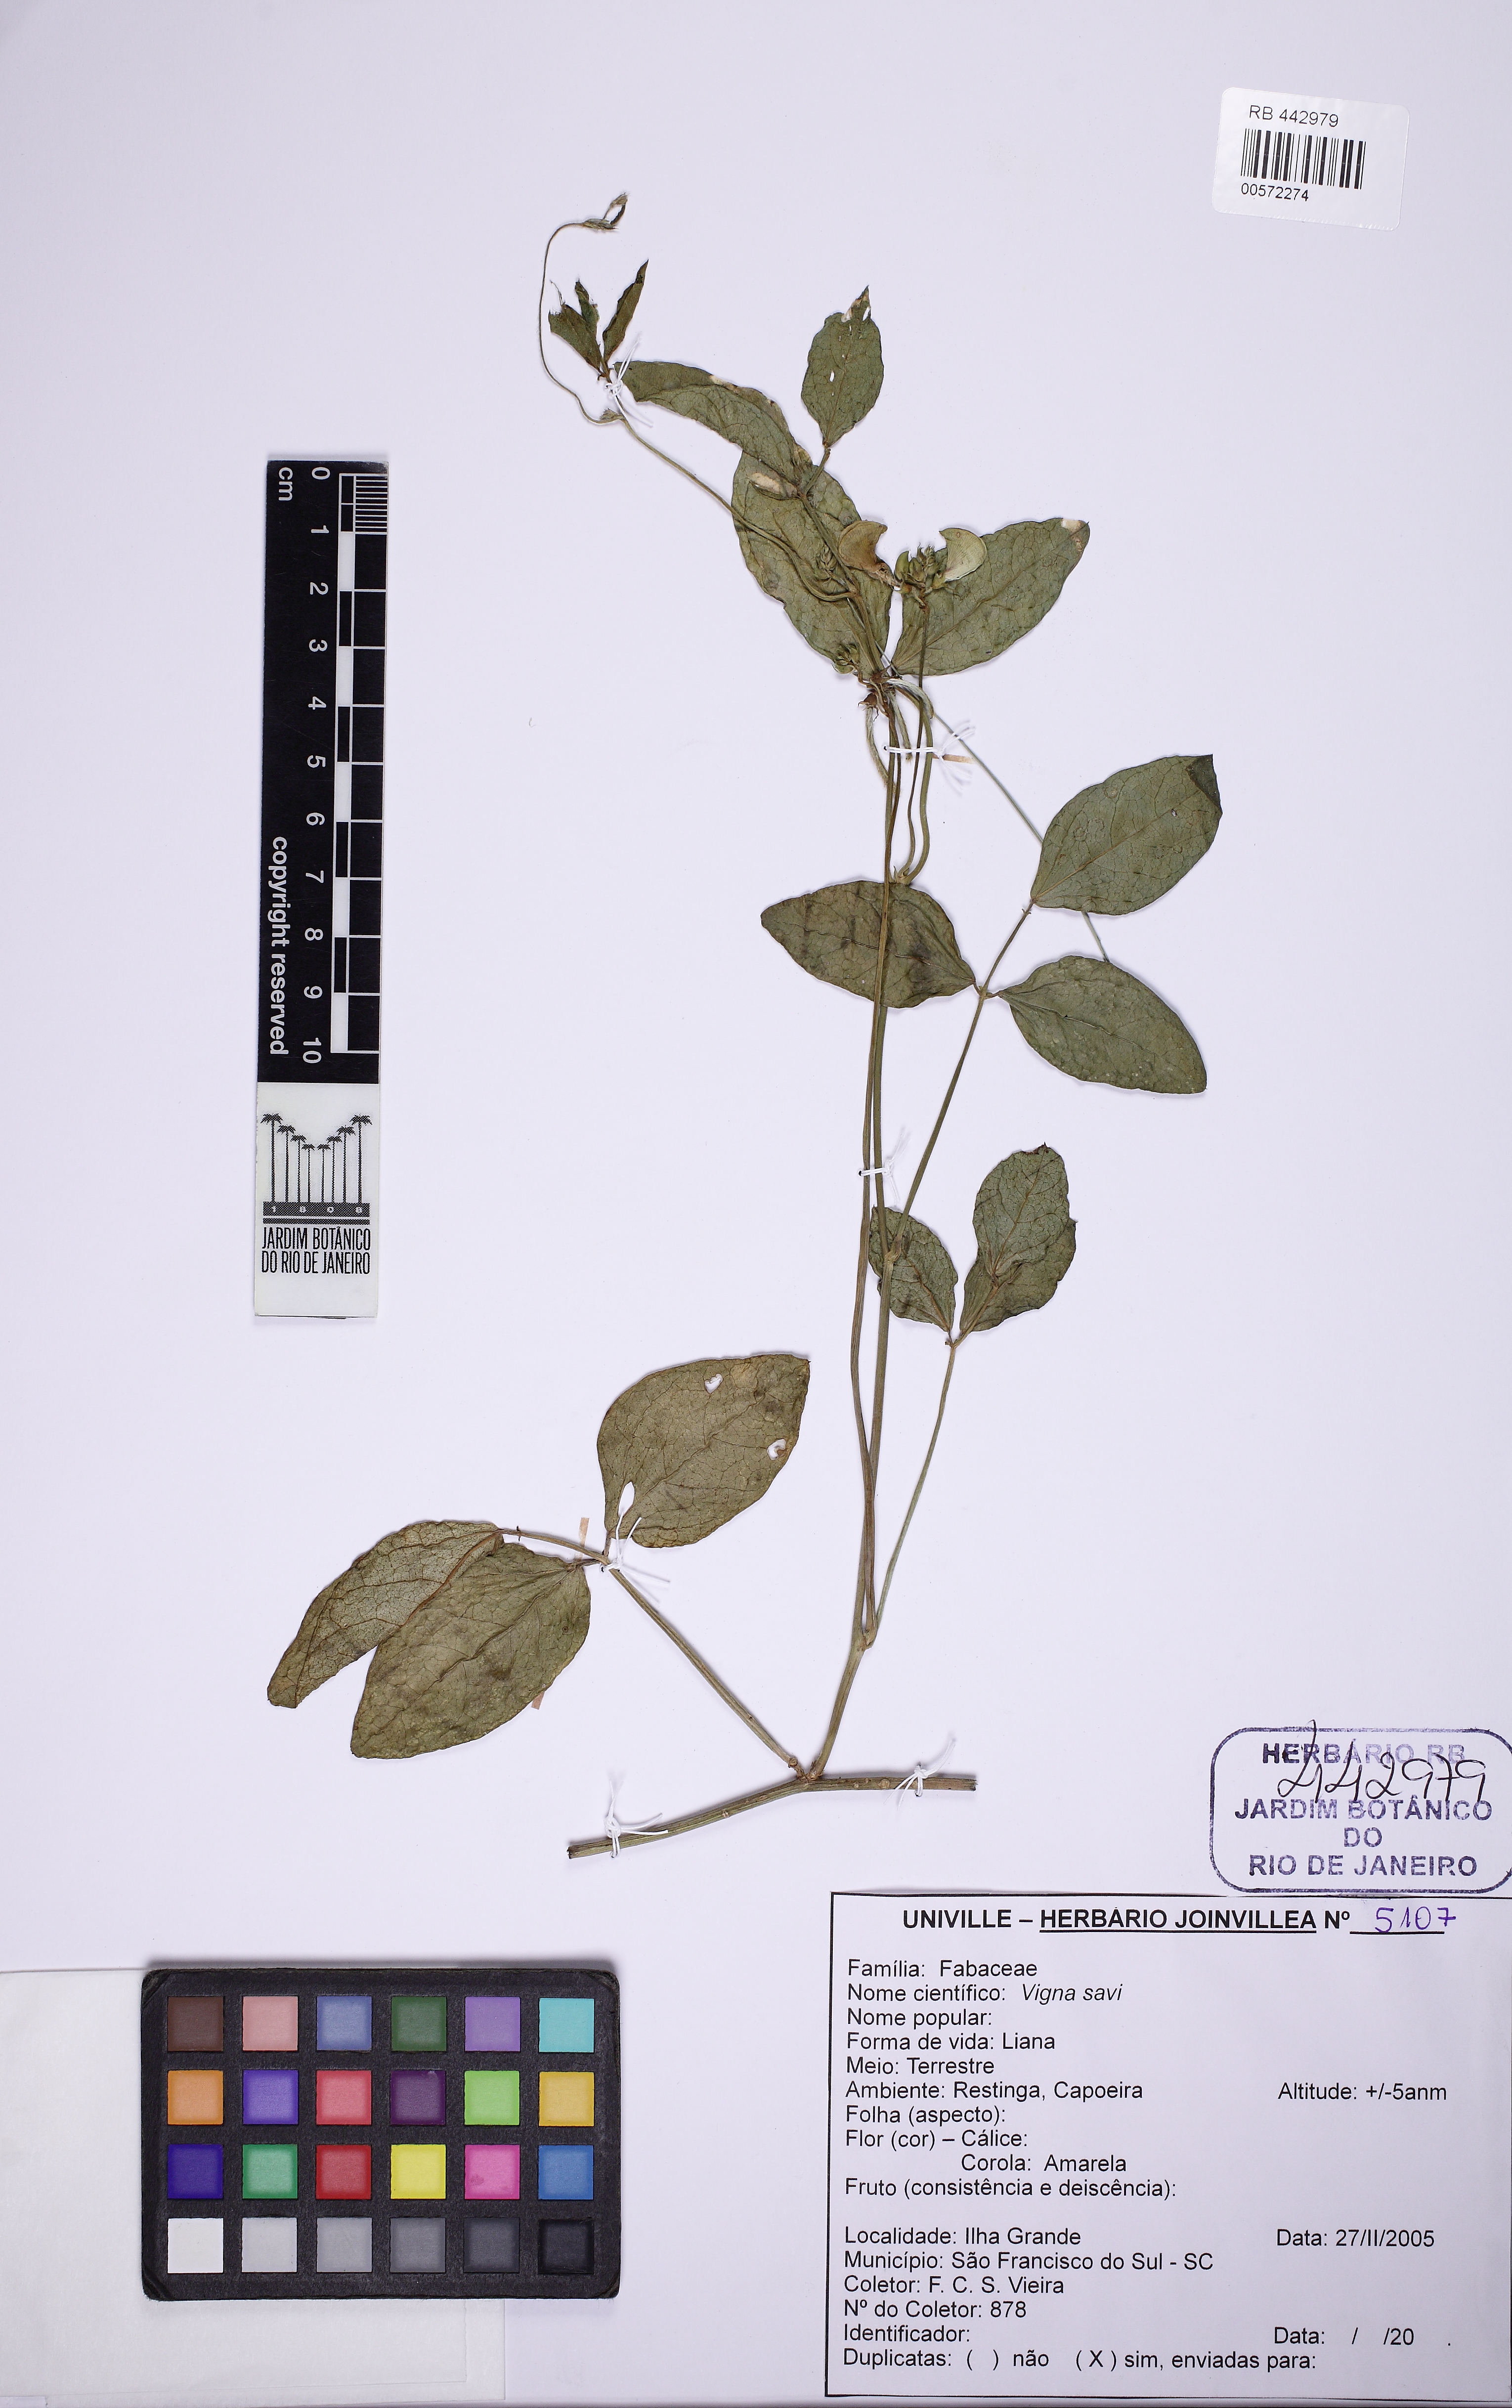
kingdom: Plantae
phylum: Tracheophyta
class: Magnoliopsida
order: Fabales
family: Fabaceae
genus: Vigna
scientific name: Vigna luteola
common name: Hairypod cowpea
